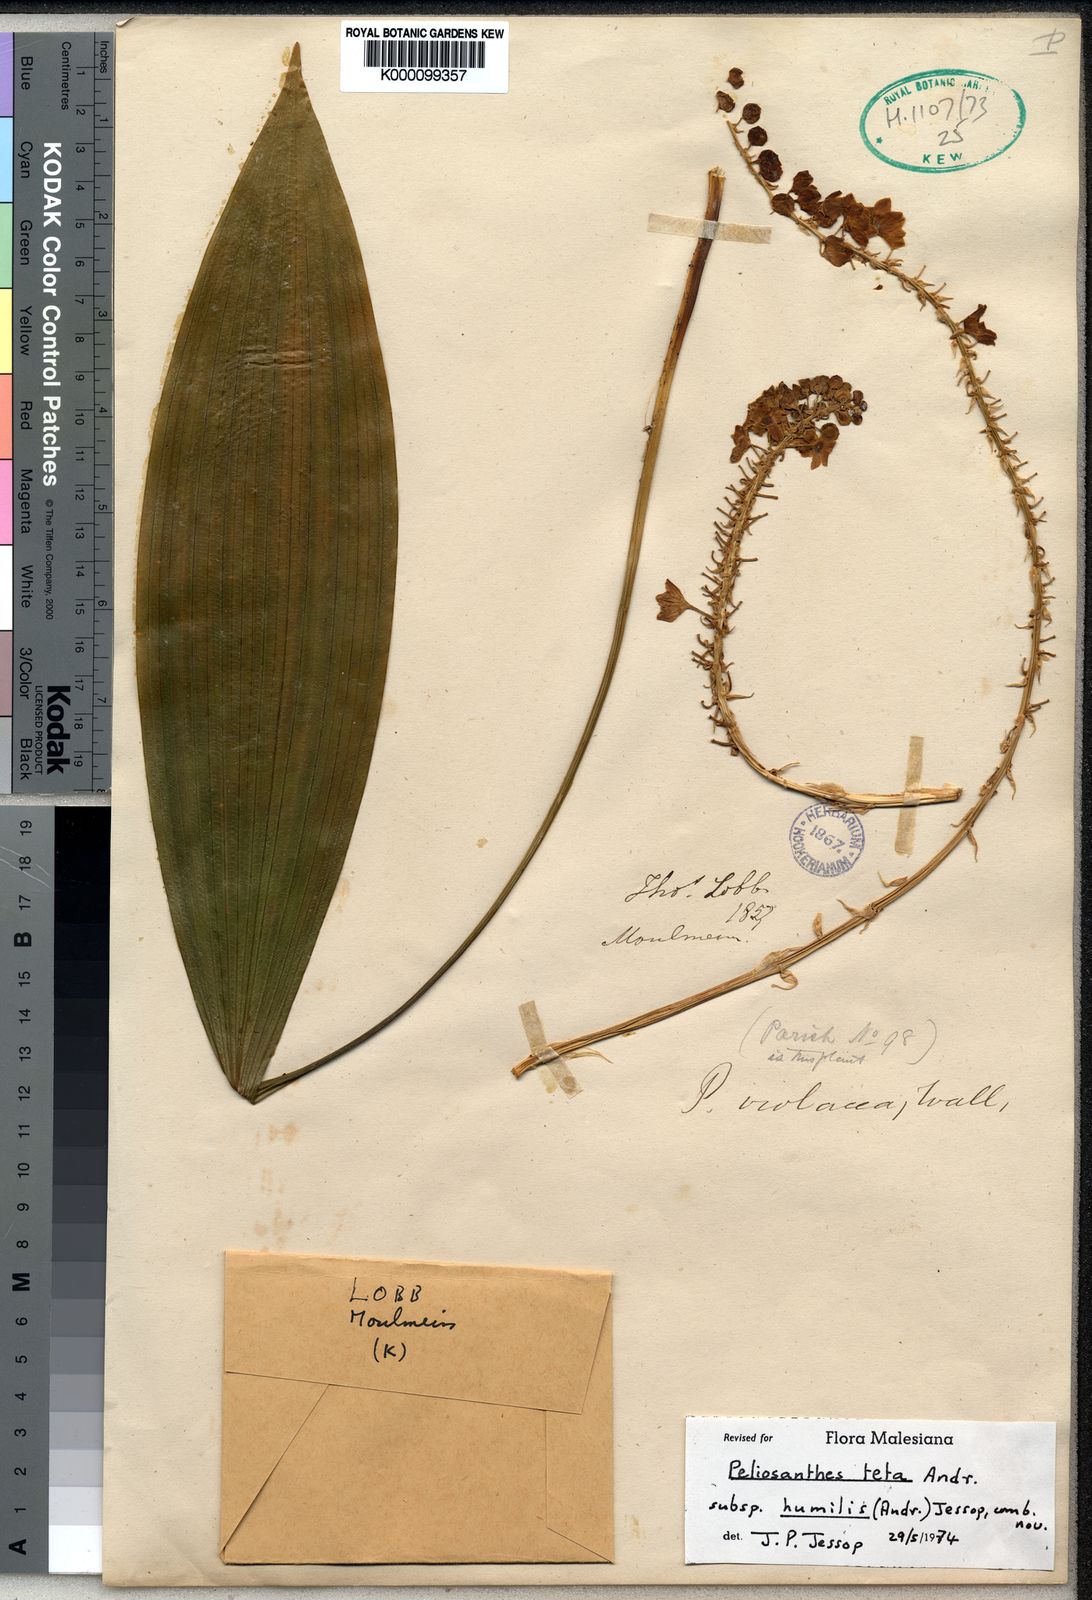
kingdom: Plantae
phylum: Tracheophyta
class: Liliopsida
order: Asparagales
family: Asparagaceae
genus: Peliosanthes
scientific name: Peliosanthes teta
